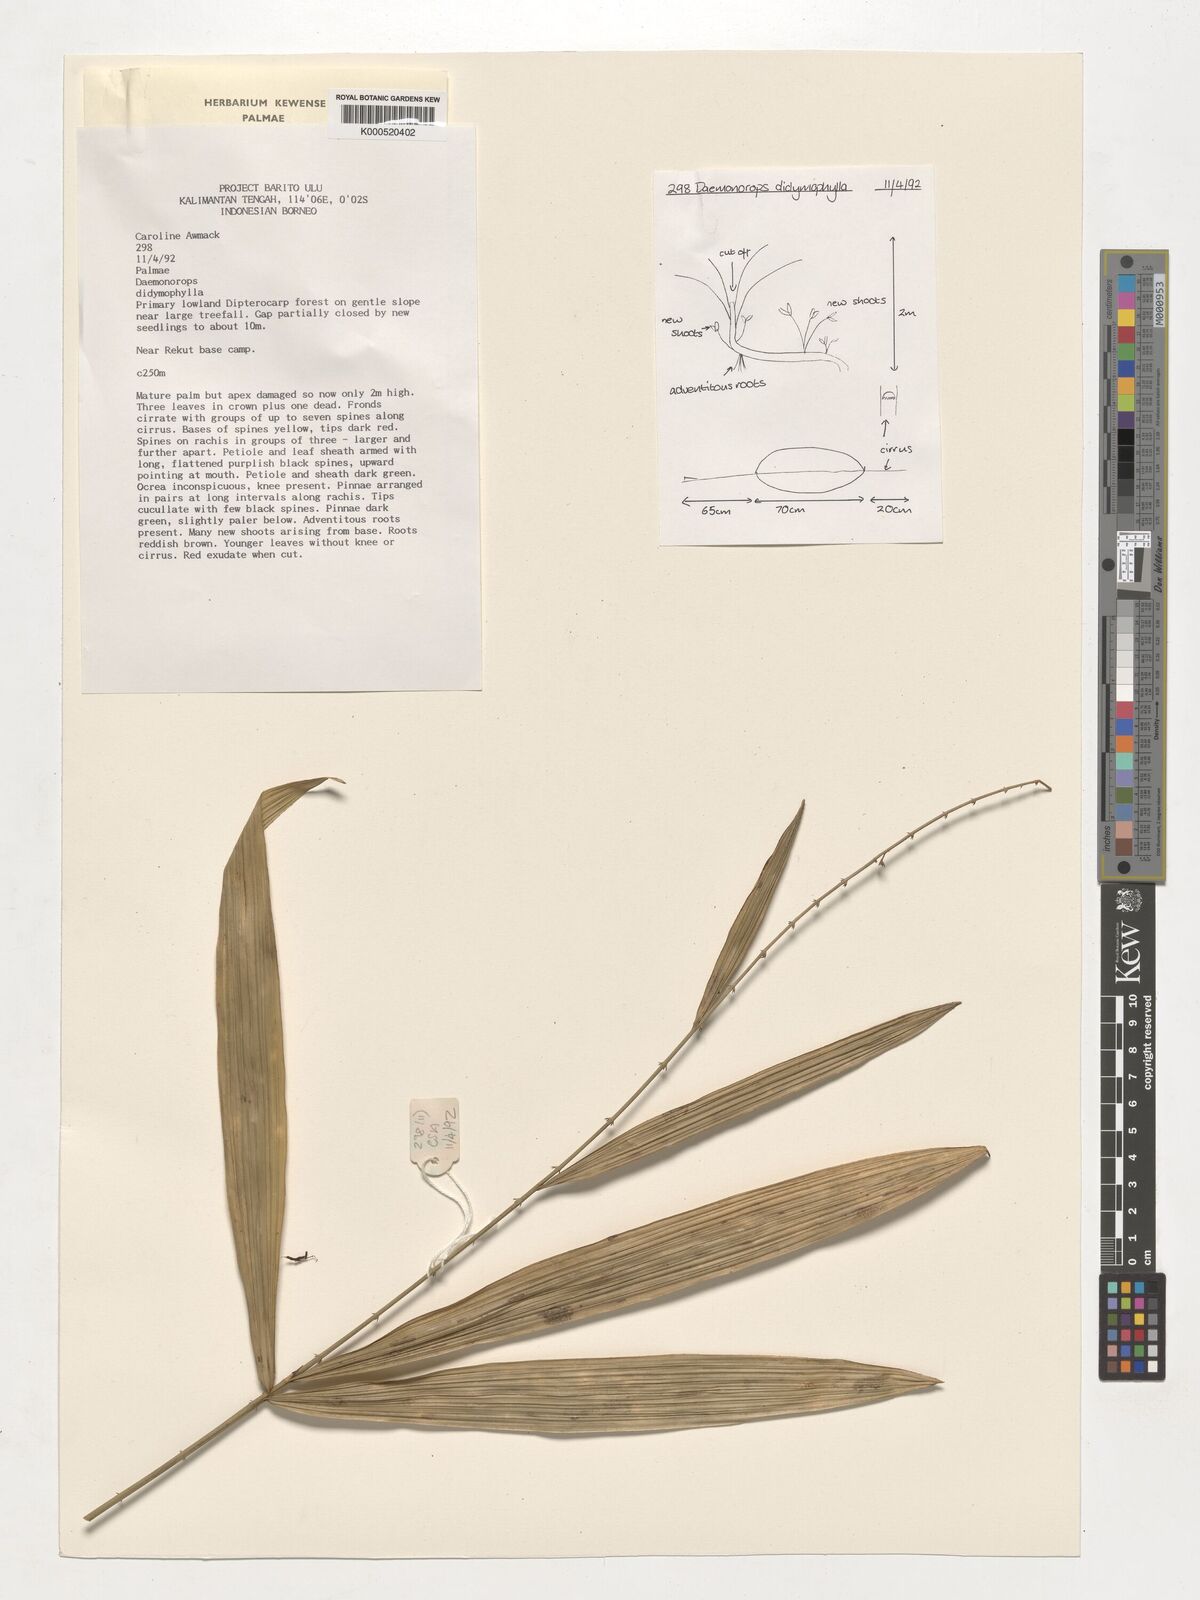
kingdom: Plantae
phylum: Tracheophyta
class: Liliopsida
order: Arecales
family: Arecaceae
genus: Calamus
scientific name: Calamus gracilipes
